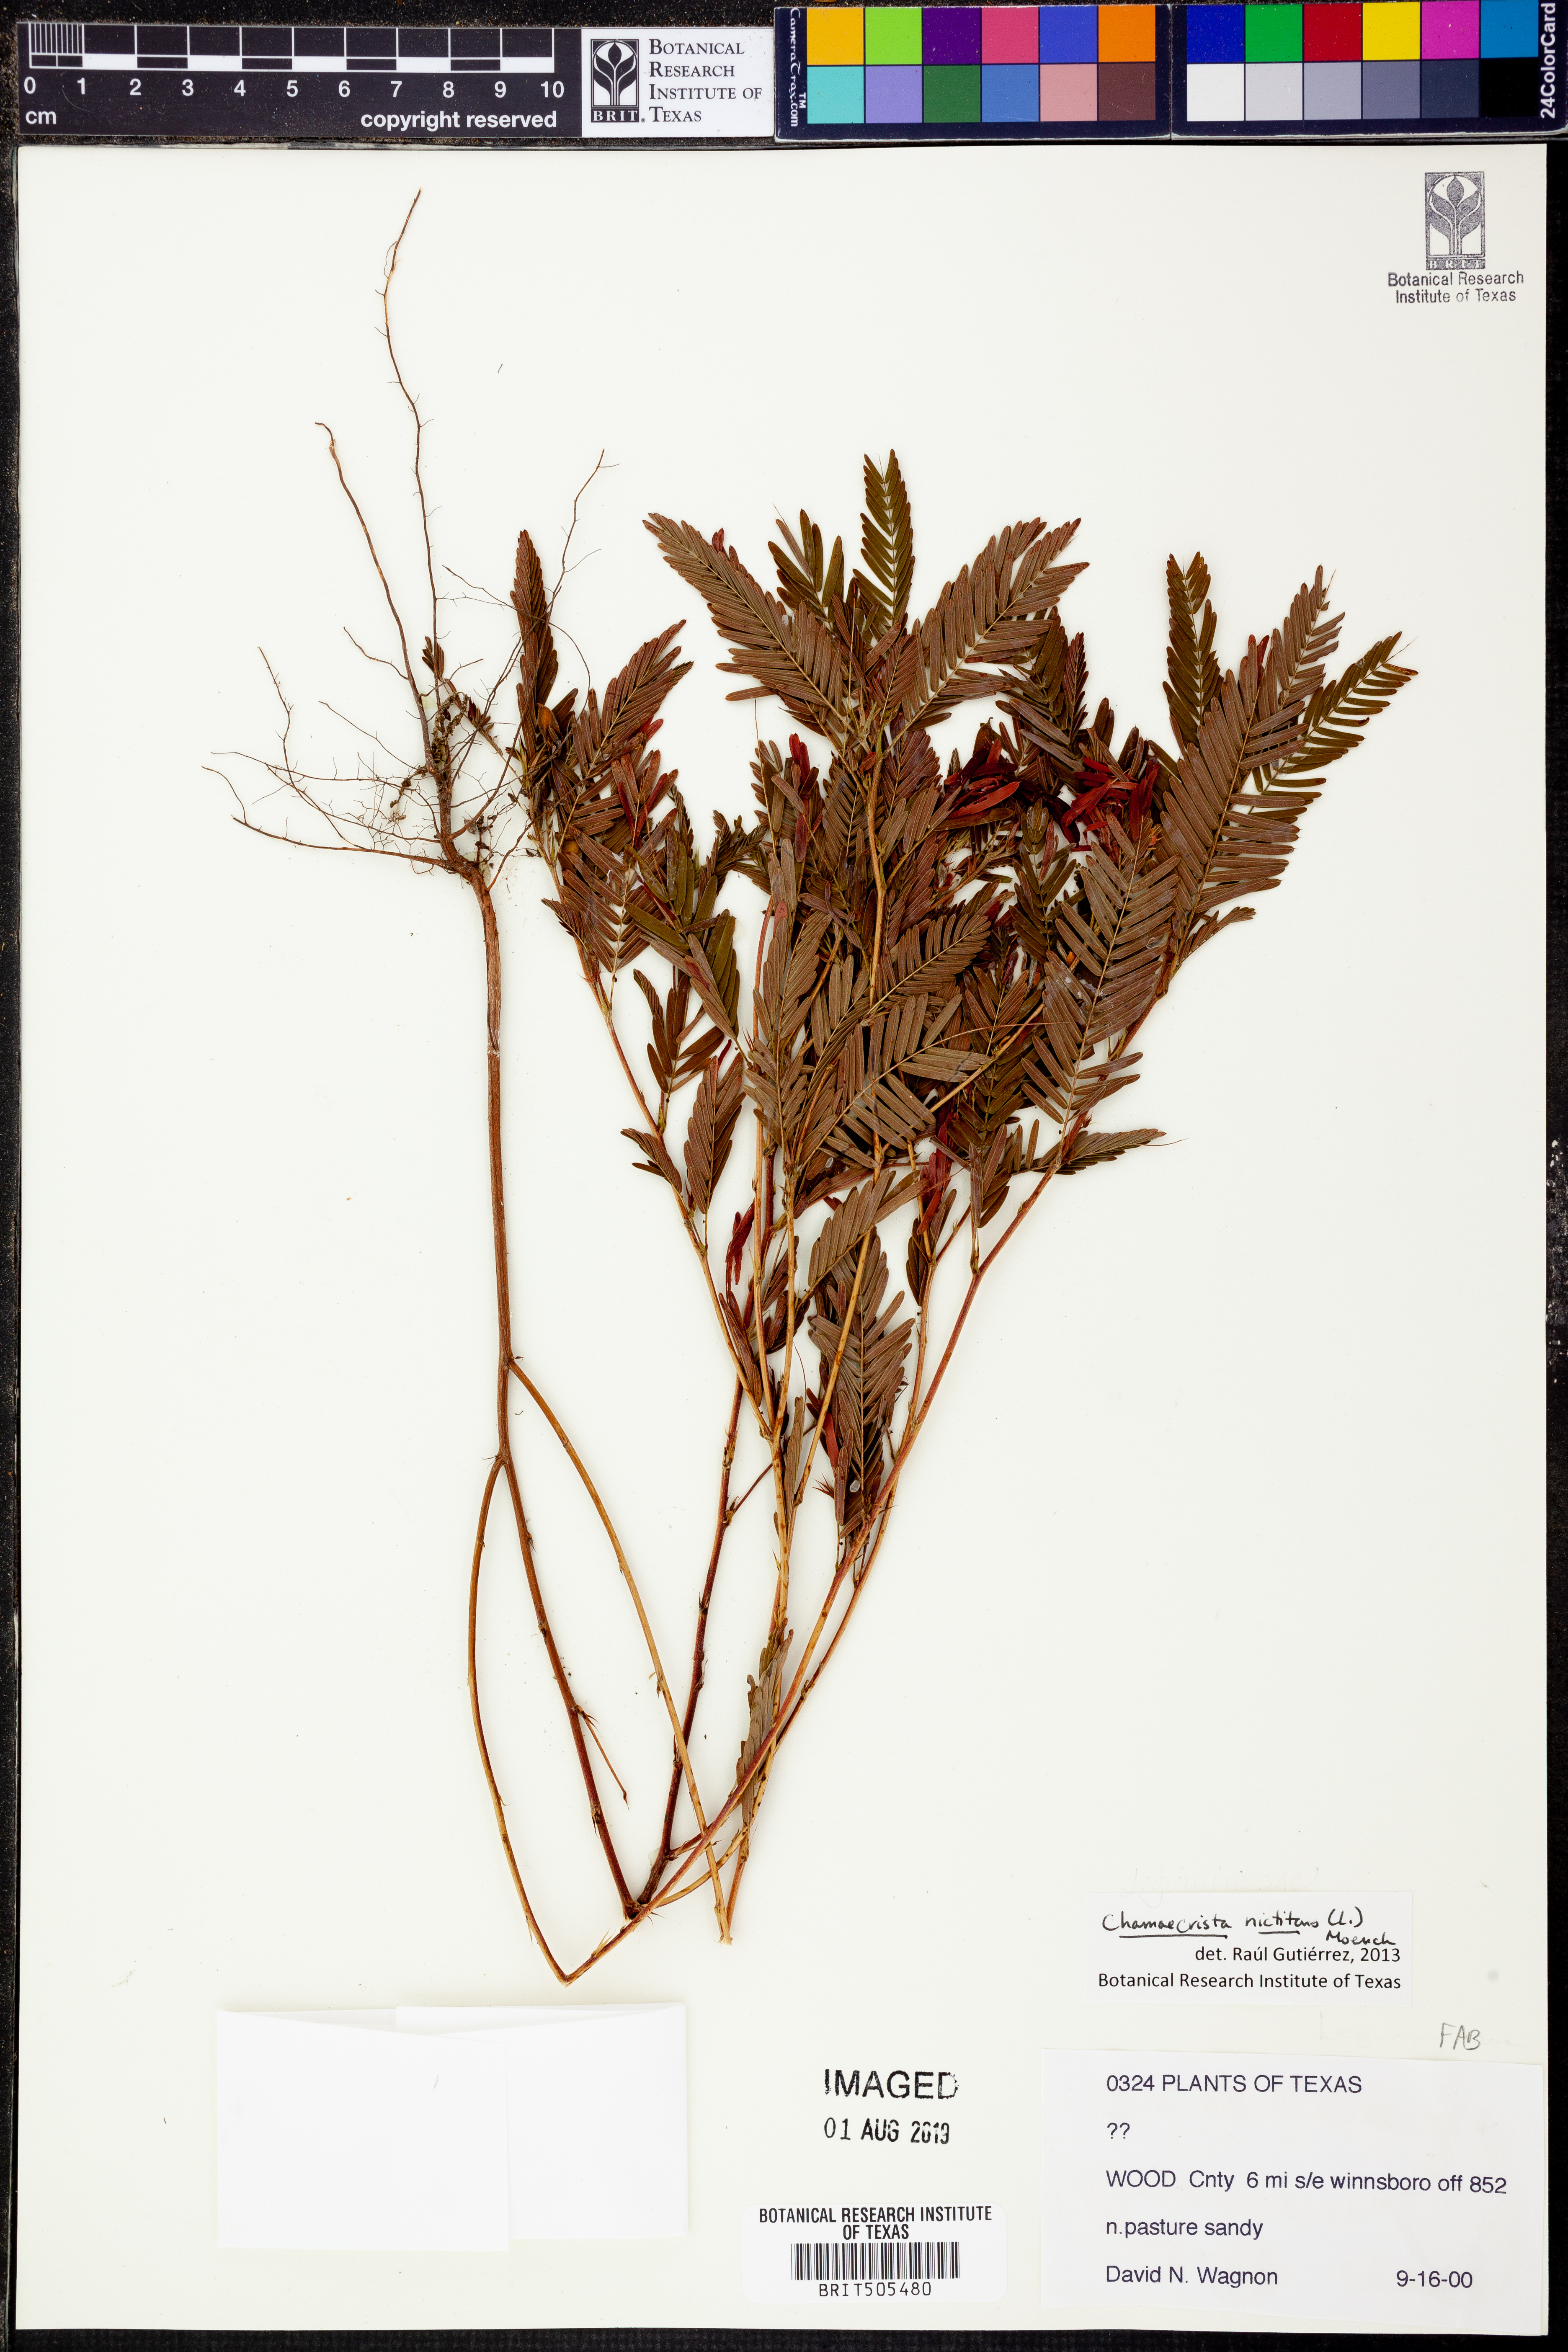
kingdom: Plantae
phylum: Tracheophyta
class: Magnoliopsida
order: Fabales
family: Fabaceae
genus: Chamaecrista
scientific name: Chamaecrista nictitans
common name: Sensitive cassia
